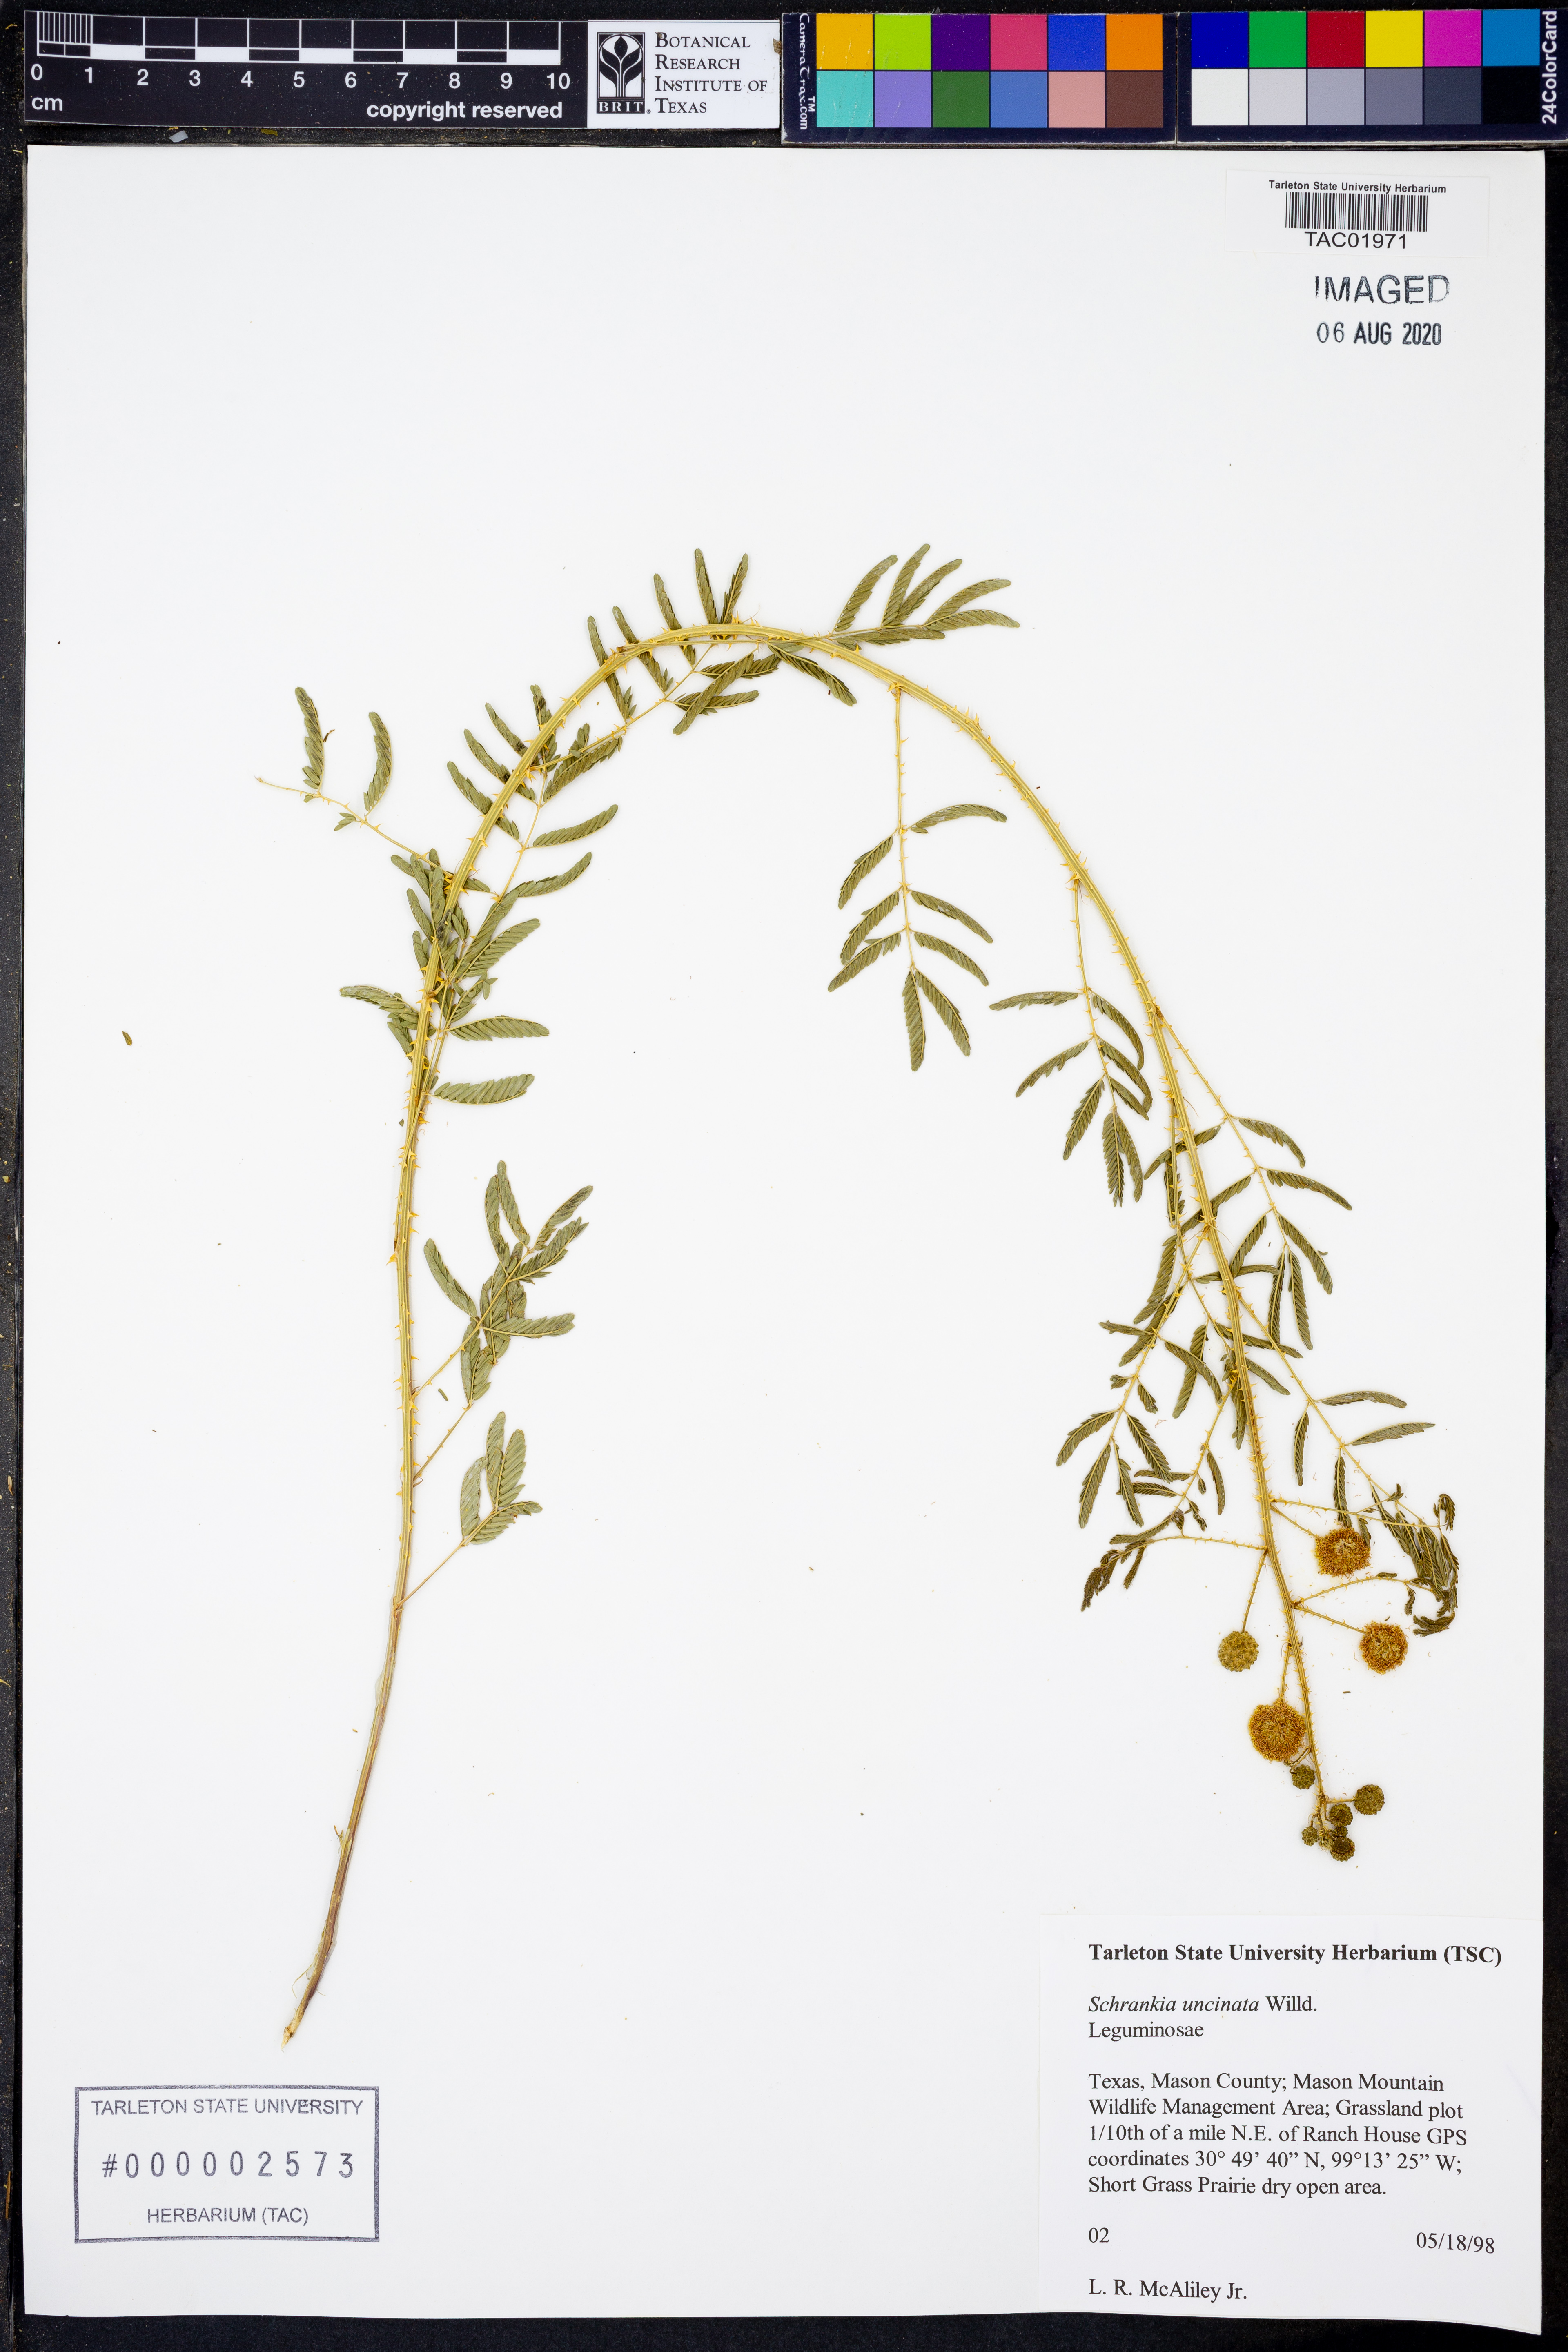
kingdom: Plantae
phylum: Tracheophyta
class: Magnoliopsida
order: Fabales
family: Fabaceae
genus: Mimosa
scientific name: Mimosa quadrivalvis
